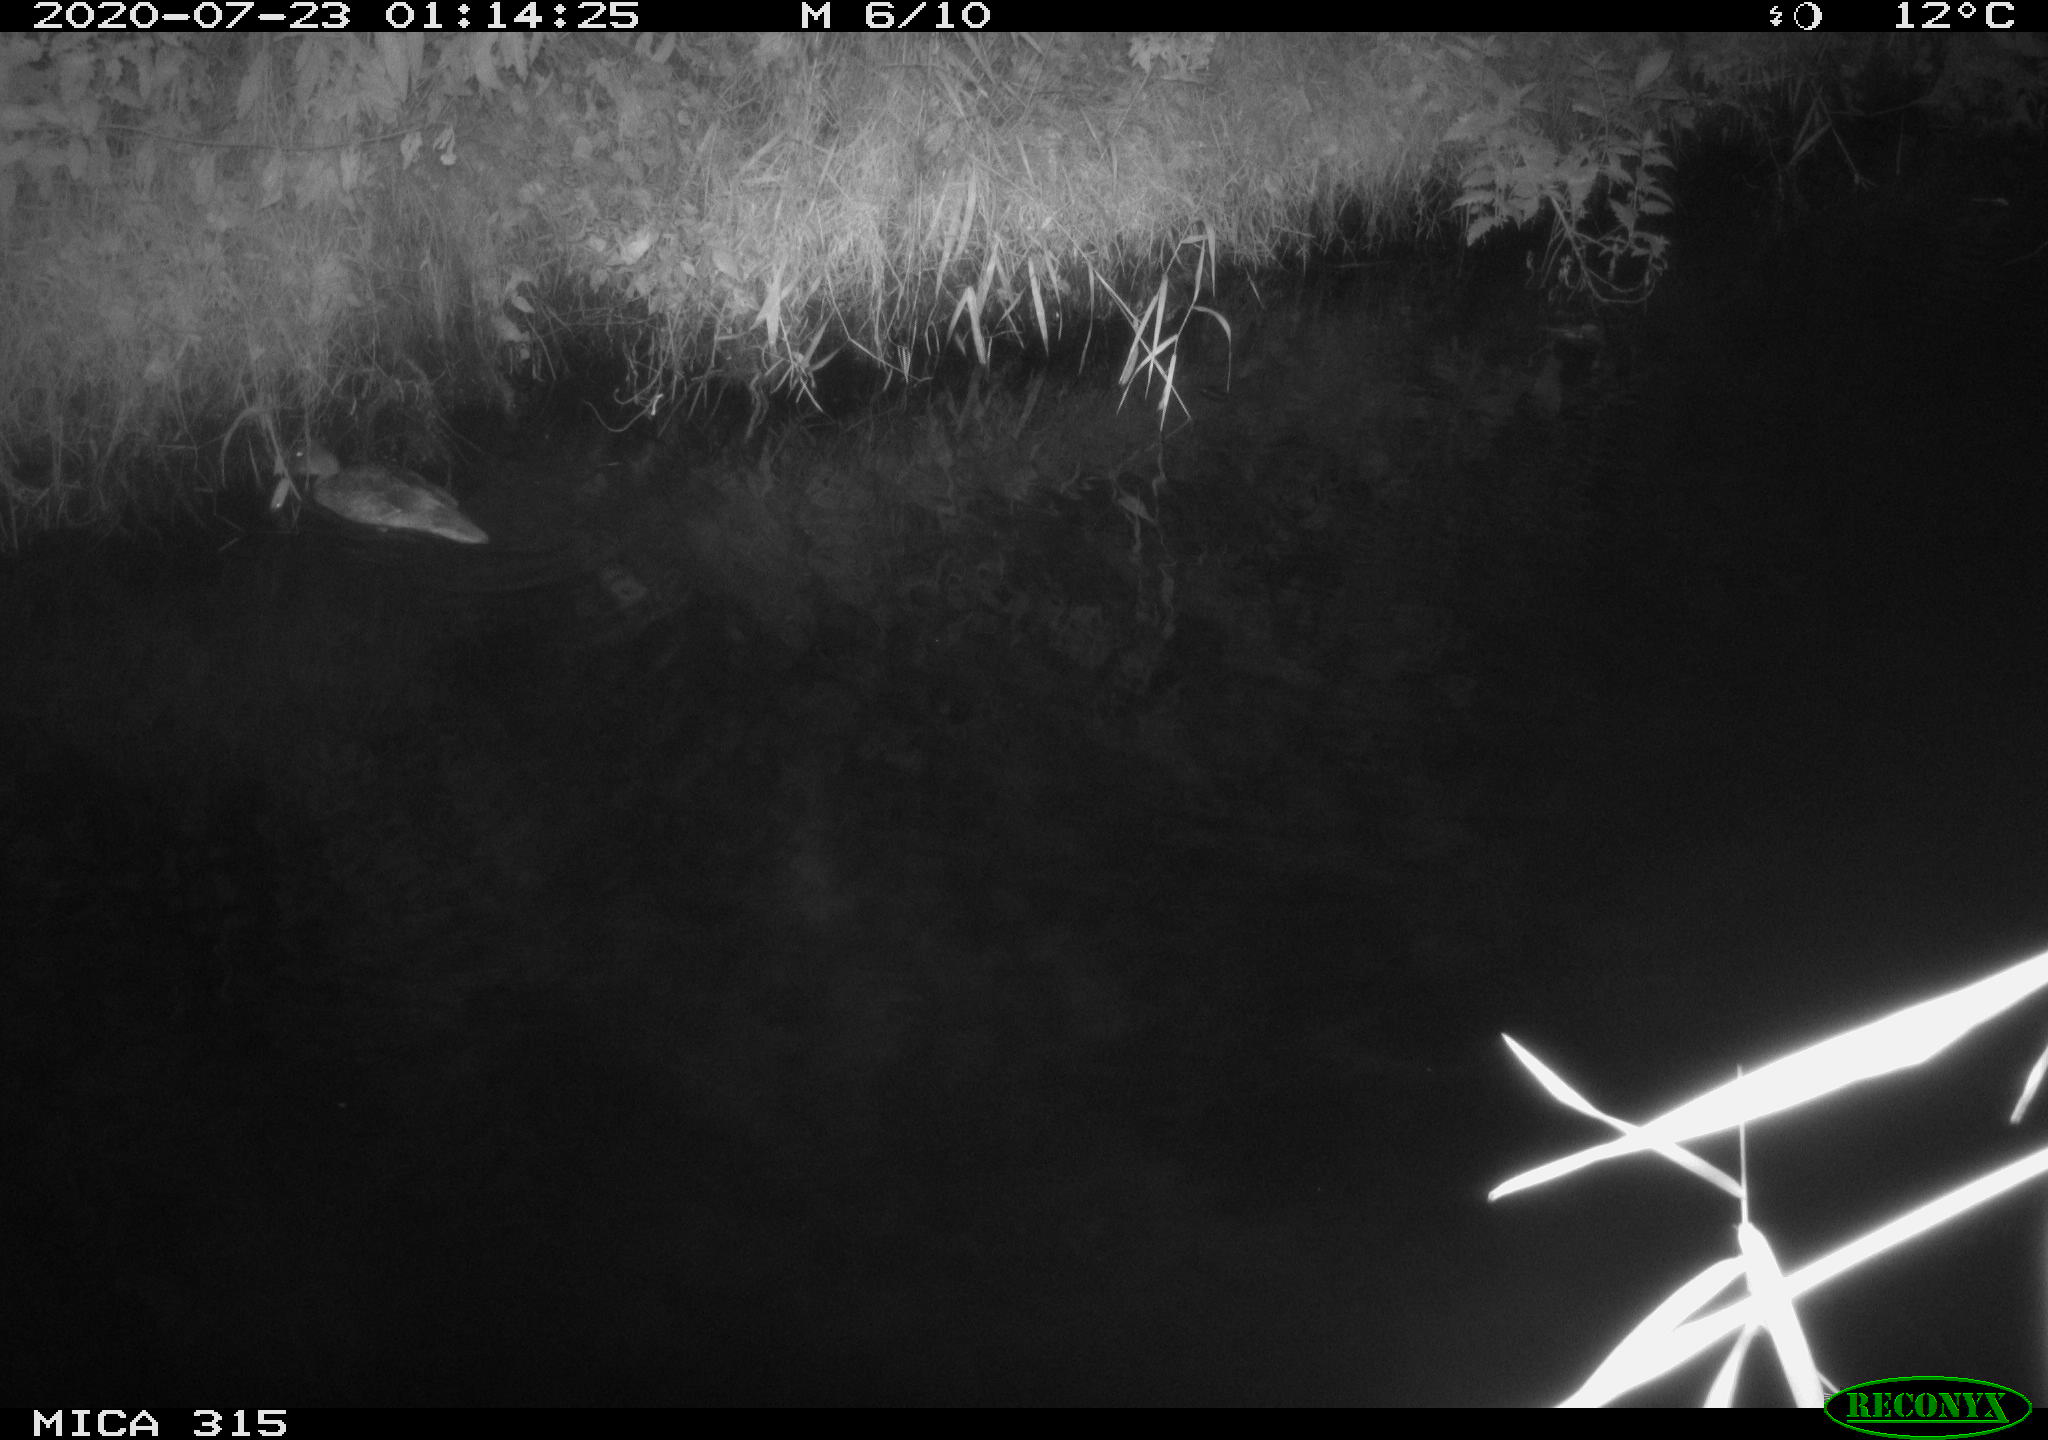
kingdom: Animalia
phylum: Chordata
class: Aves
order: Anseriformes
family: Anatidae
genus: Anas
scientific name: Anas platyrhynchos
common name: Mallard
